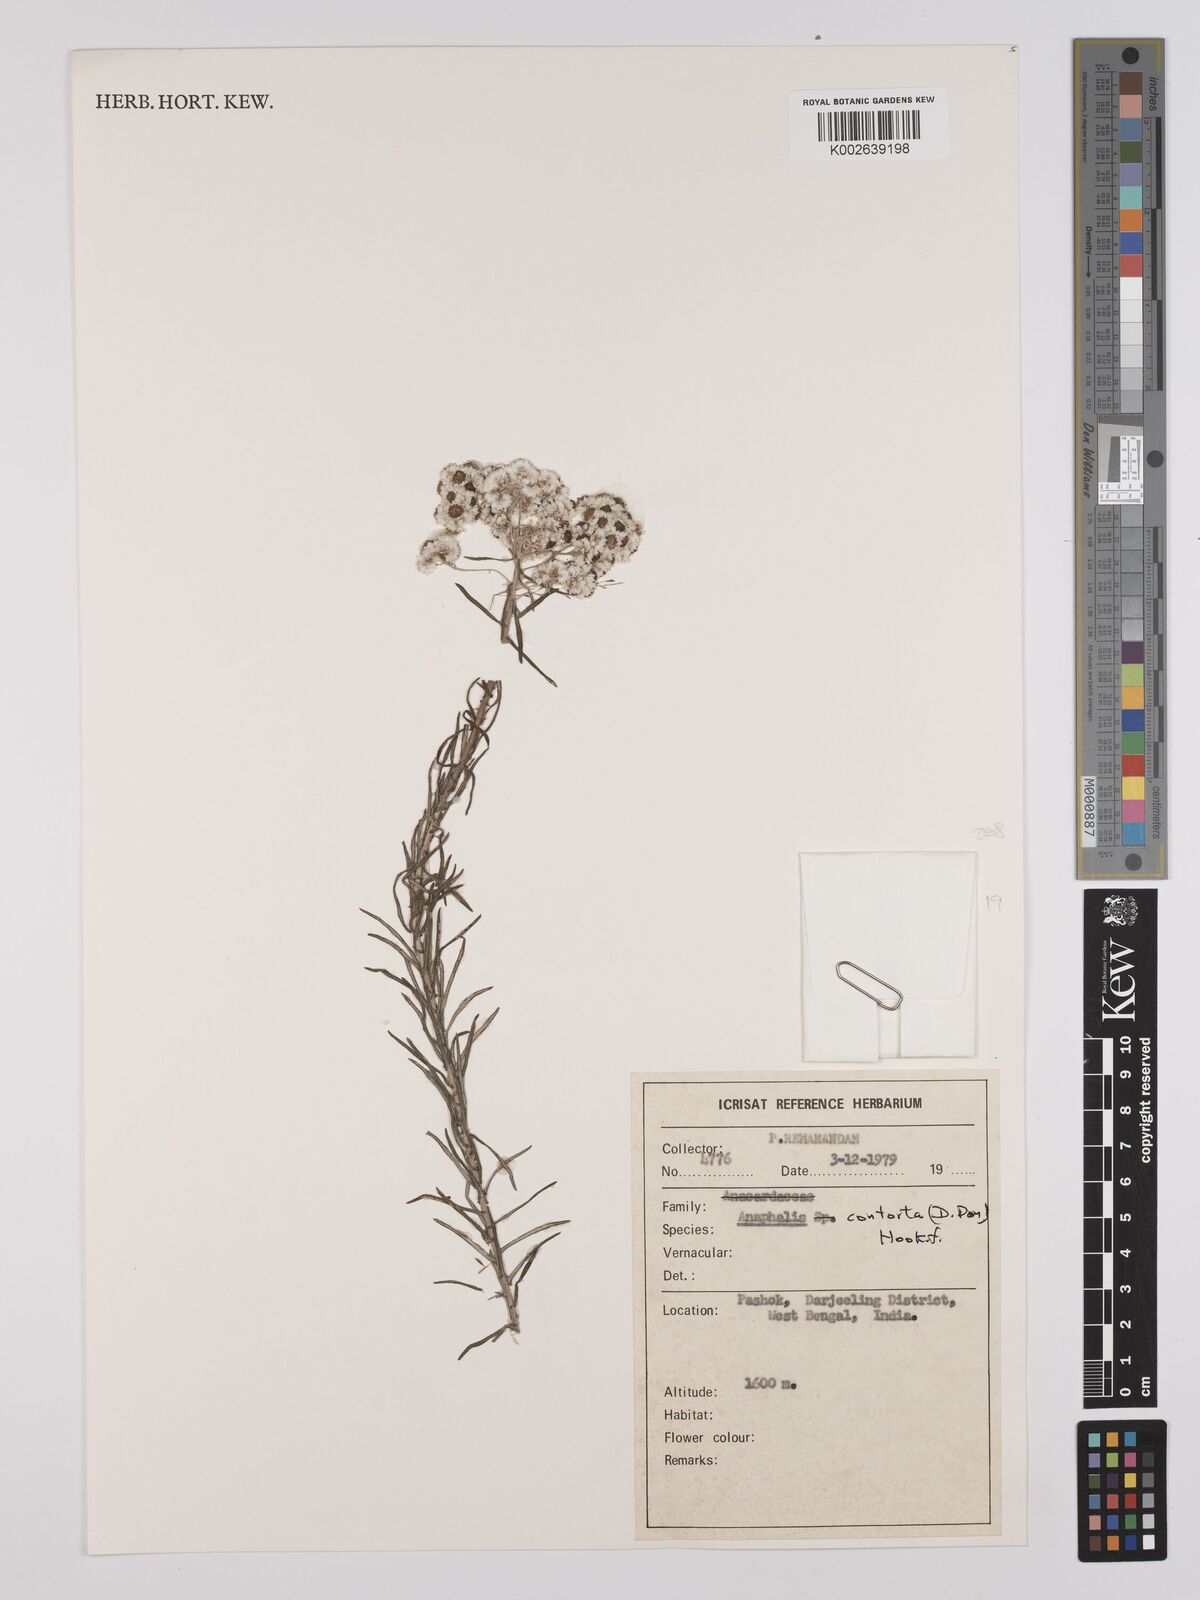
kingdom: Plantae
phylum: Tracheophyta
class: Magnoliopsida
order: Asterales
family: Asteraceae
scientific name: Asteraceae
